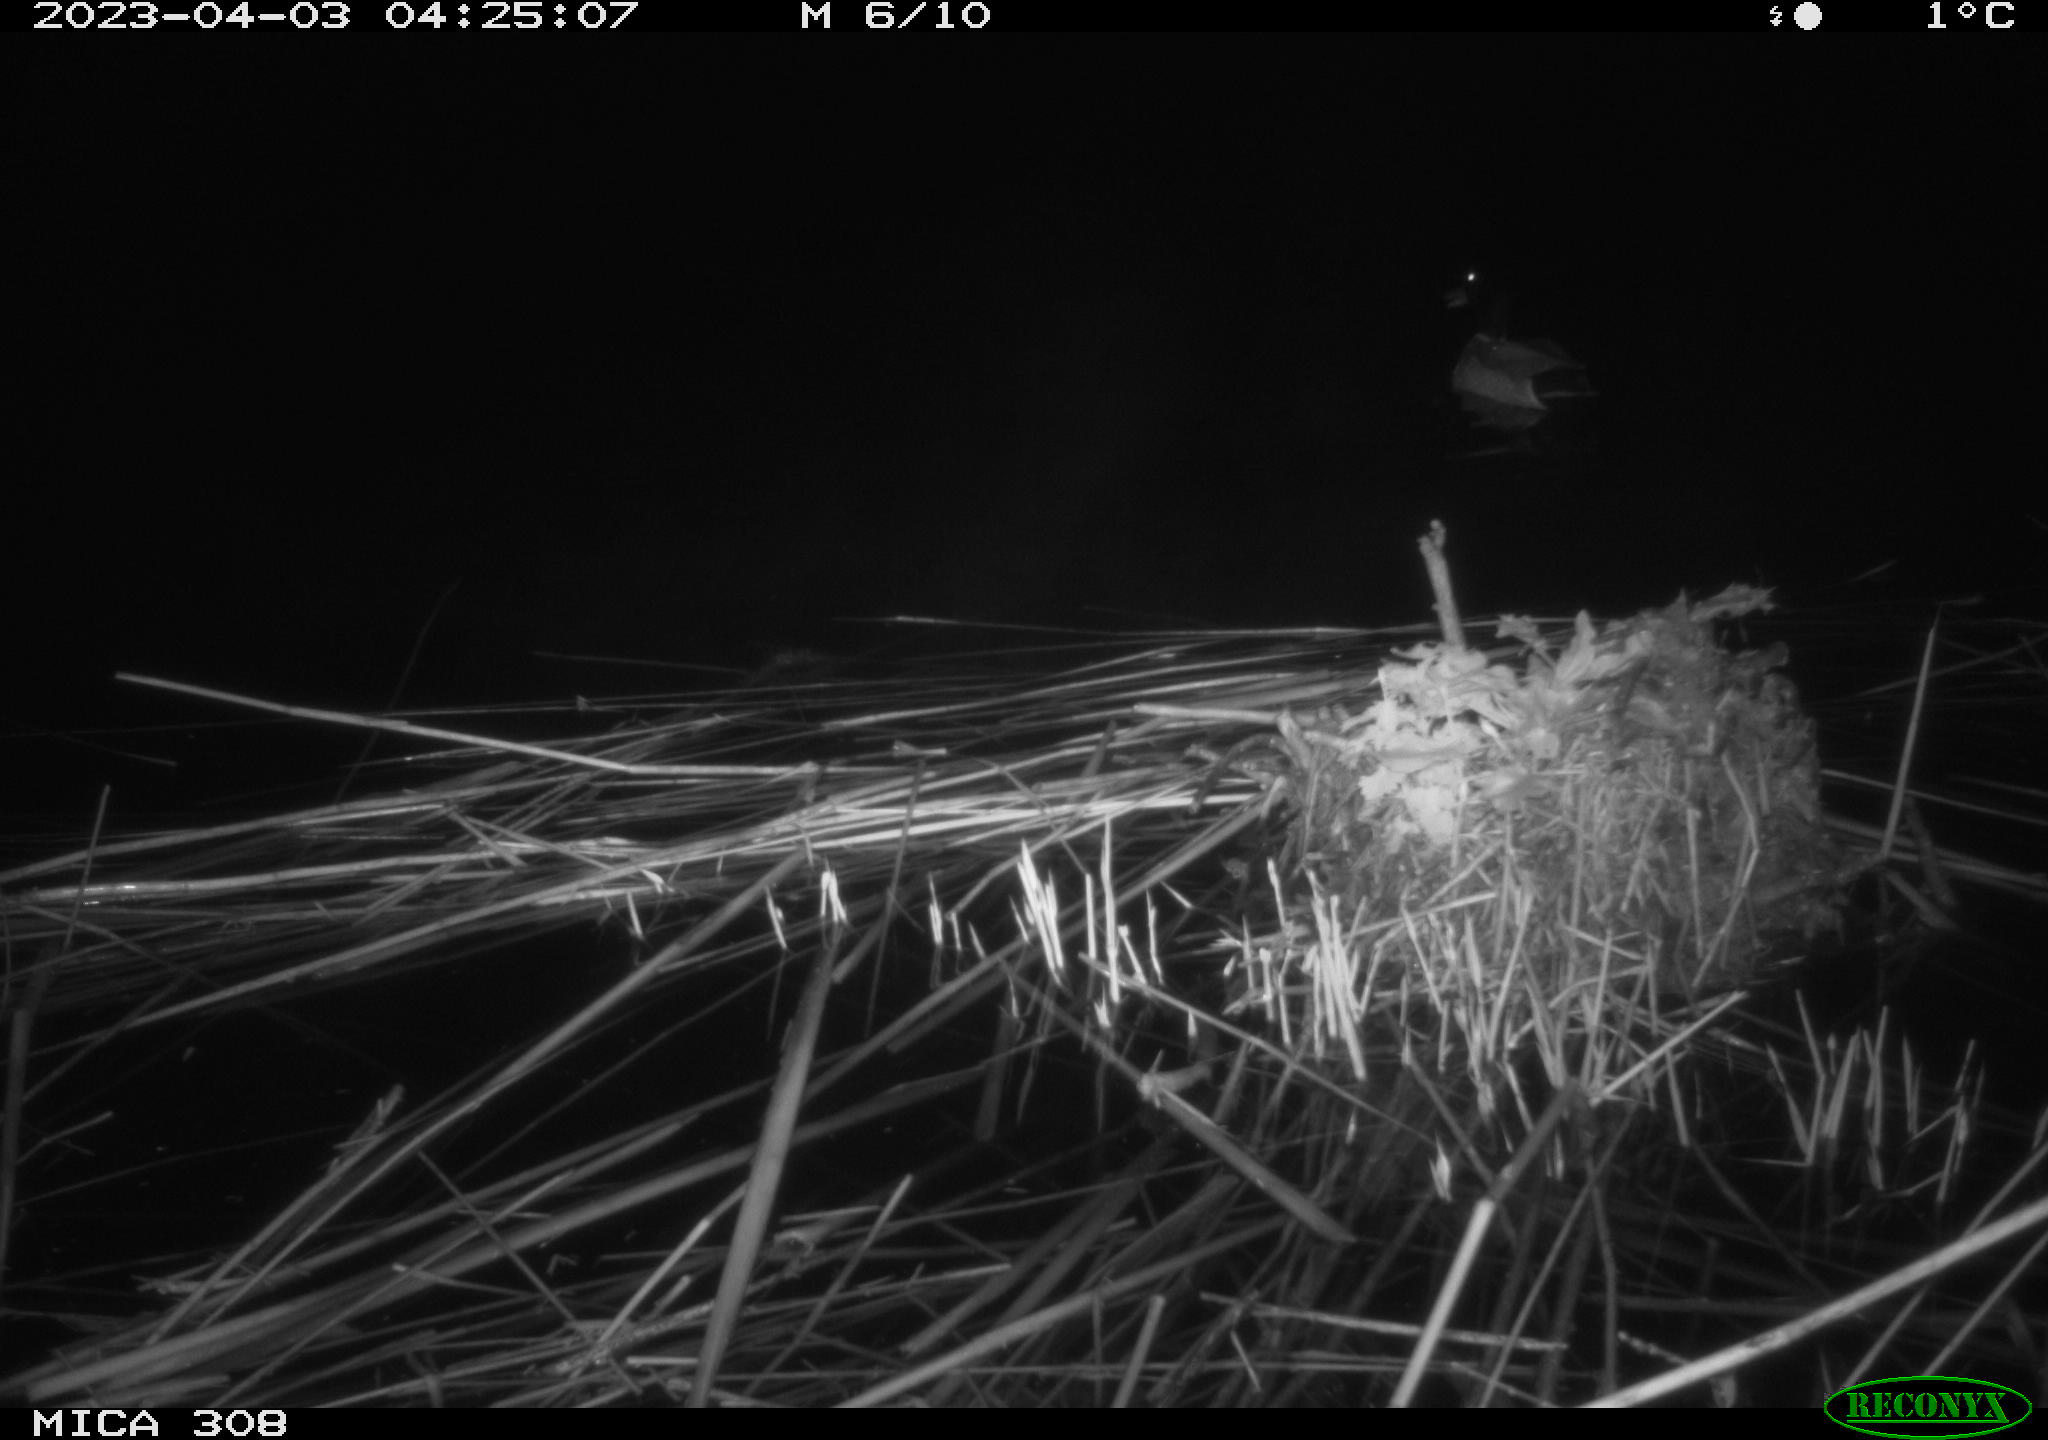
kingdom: Animalia
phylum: Chordata
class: Aves
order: Anseriformes
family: Anatidae
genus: Anas
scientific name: Anas
